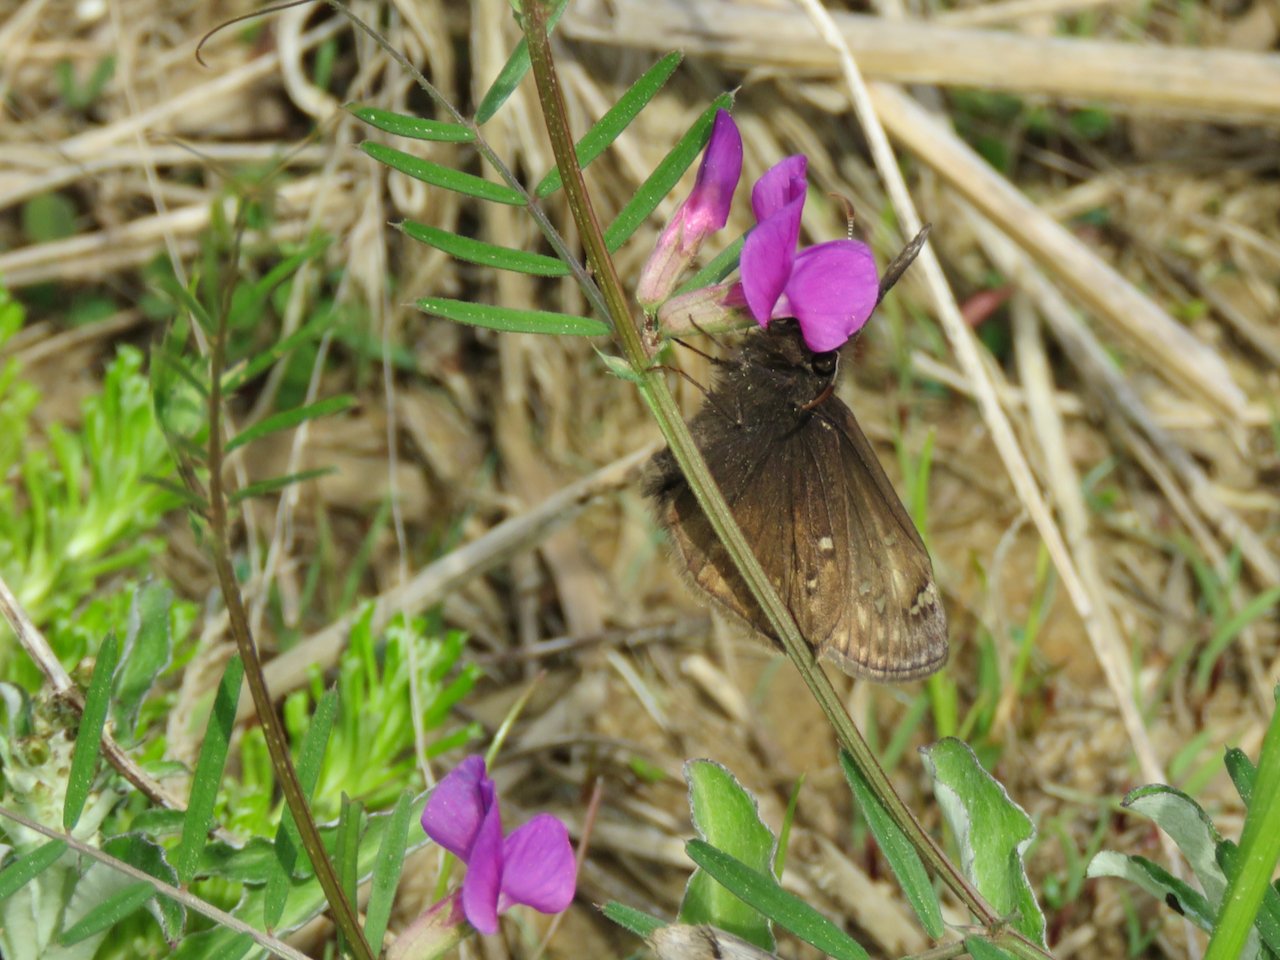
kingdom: Animalia
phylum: Arthropoda
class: Insecta
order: Lepidoptera
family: Hesperiidae
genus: Gesta
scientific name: Gesta
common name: Juvenal's Duskywing
